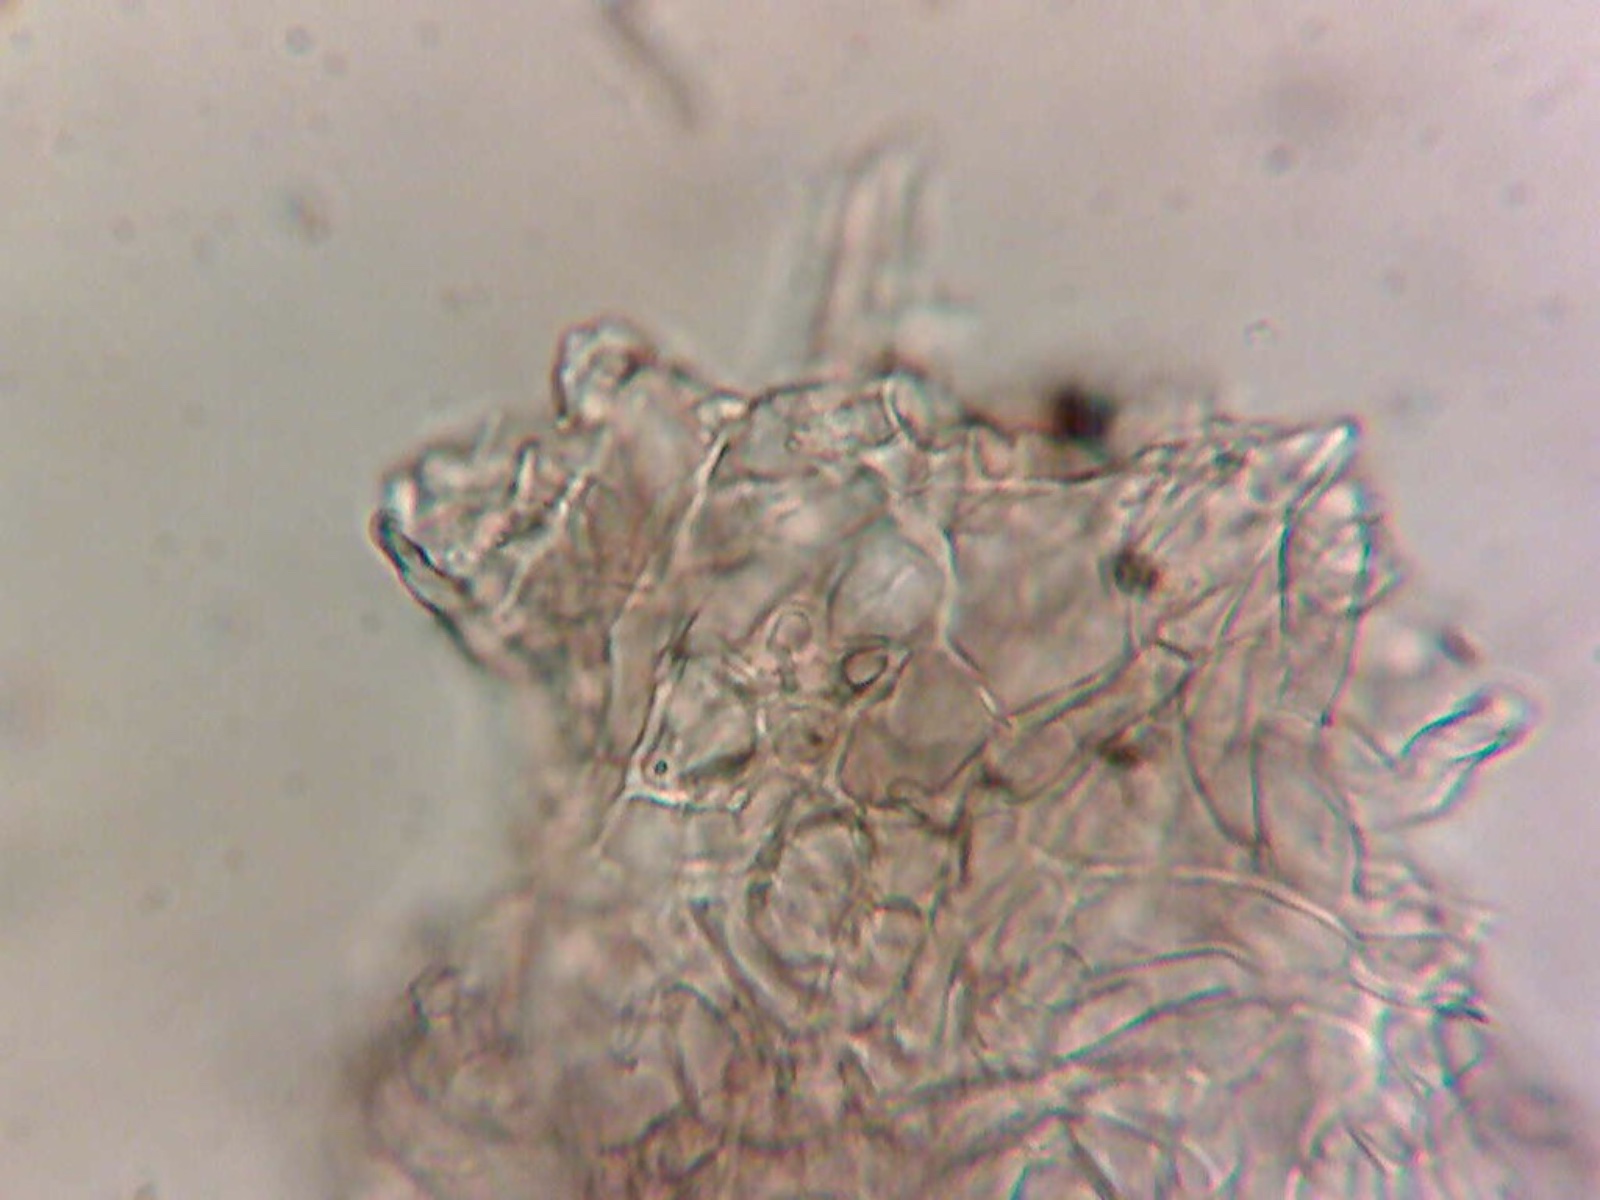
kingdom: Fungi
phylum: Ascomycota
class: Pezizomycetes
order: Pezizales
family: Tuberaceae
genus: Tuber
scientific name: Tuber puberulum
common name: dunet trøffel
